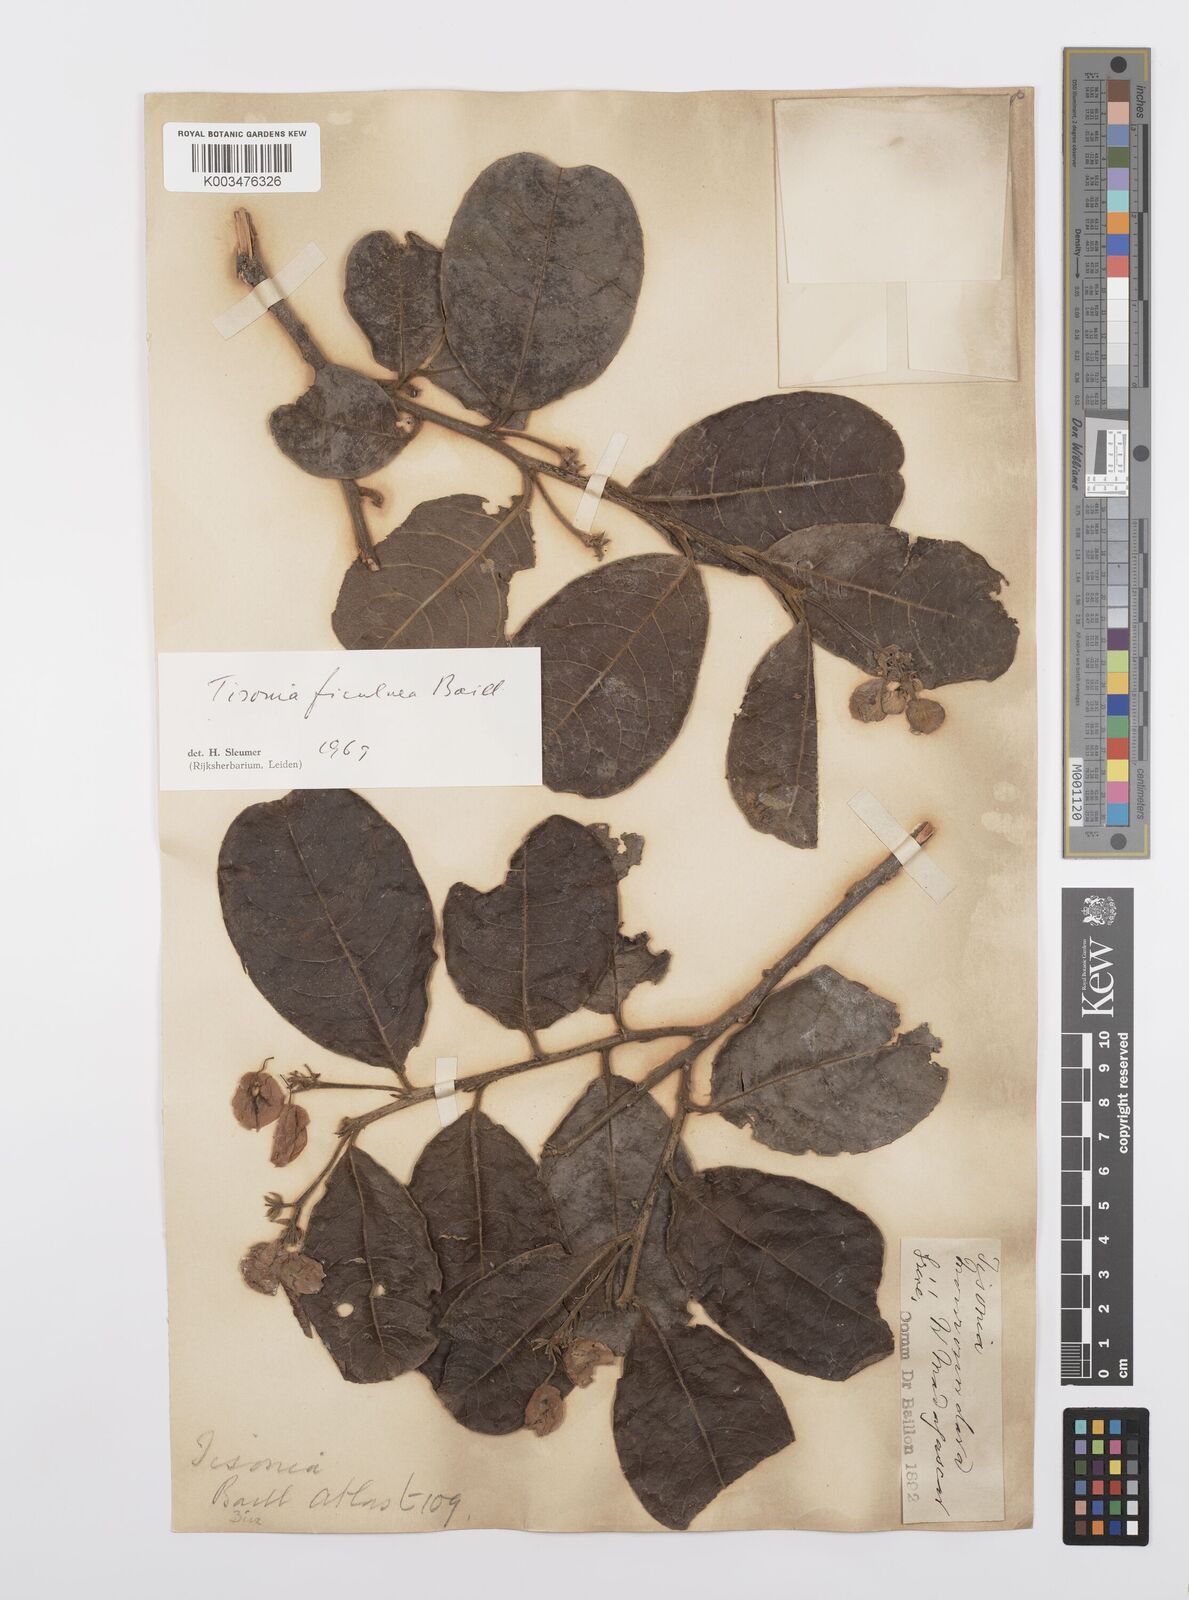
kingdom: Plantae
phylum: Tracheophyta
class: Magnoliopsida
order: Malpighiales
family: Salicaceae
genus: Tisonia
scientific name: Tisonia ficulnea
